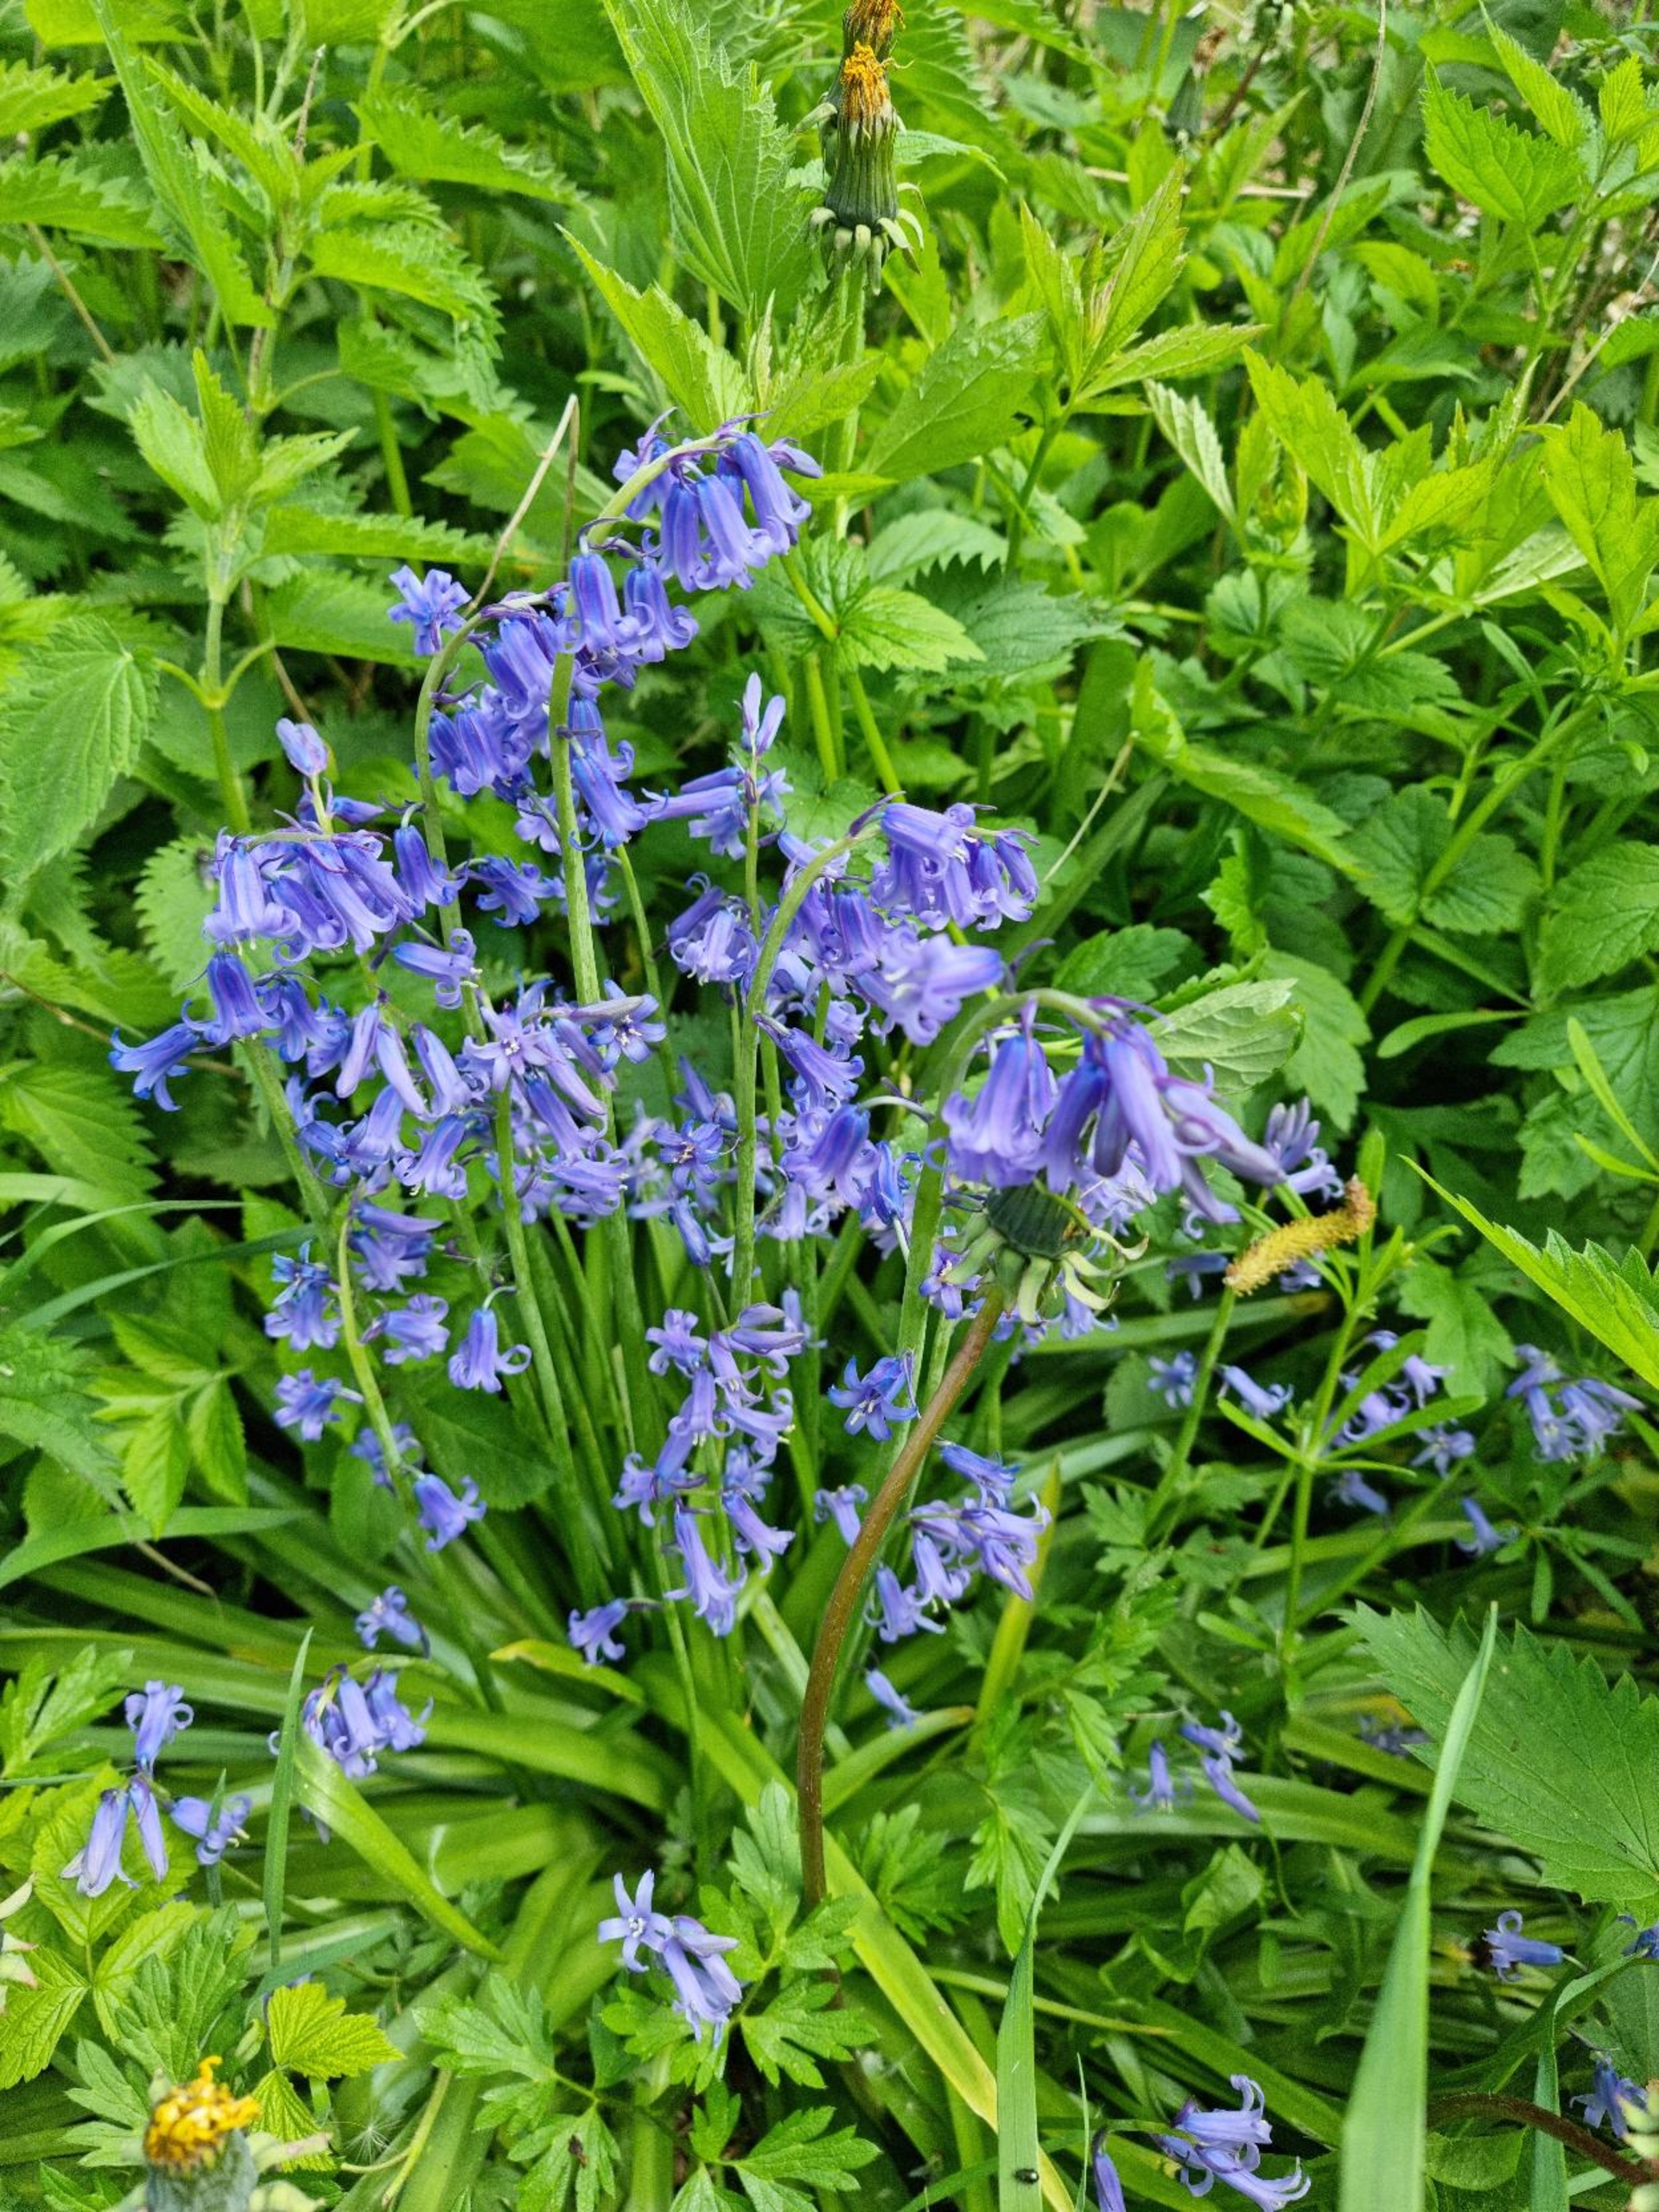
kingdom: Plantae
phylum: Tracheophyta
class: Liliopsida
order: Asparagales
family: Asparagaceae
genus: Hyacinthoides
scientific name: Hyacinthoides massartiana
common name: Hybrid-klokkeskilla
